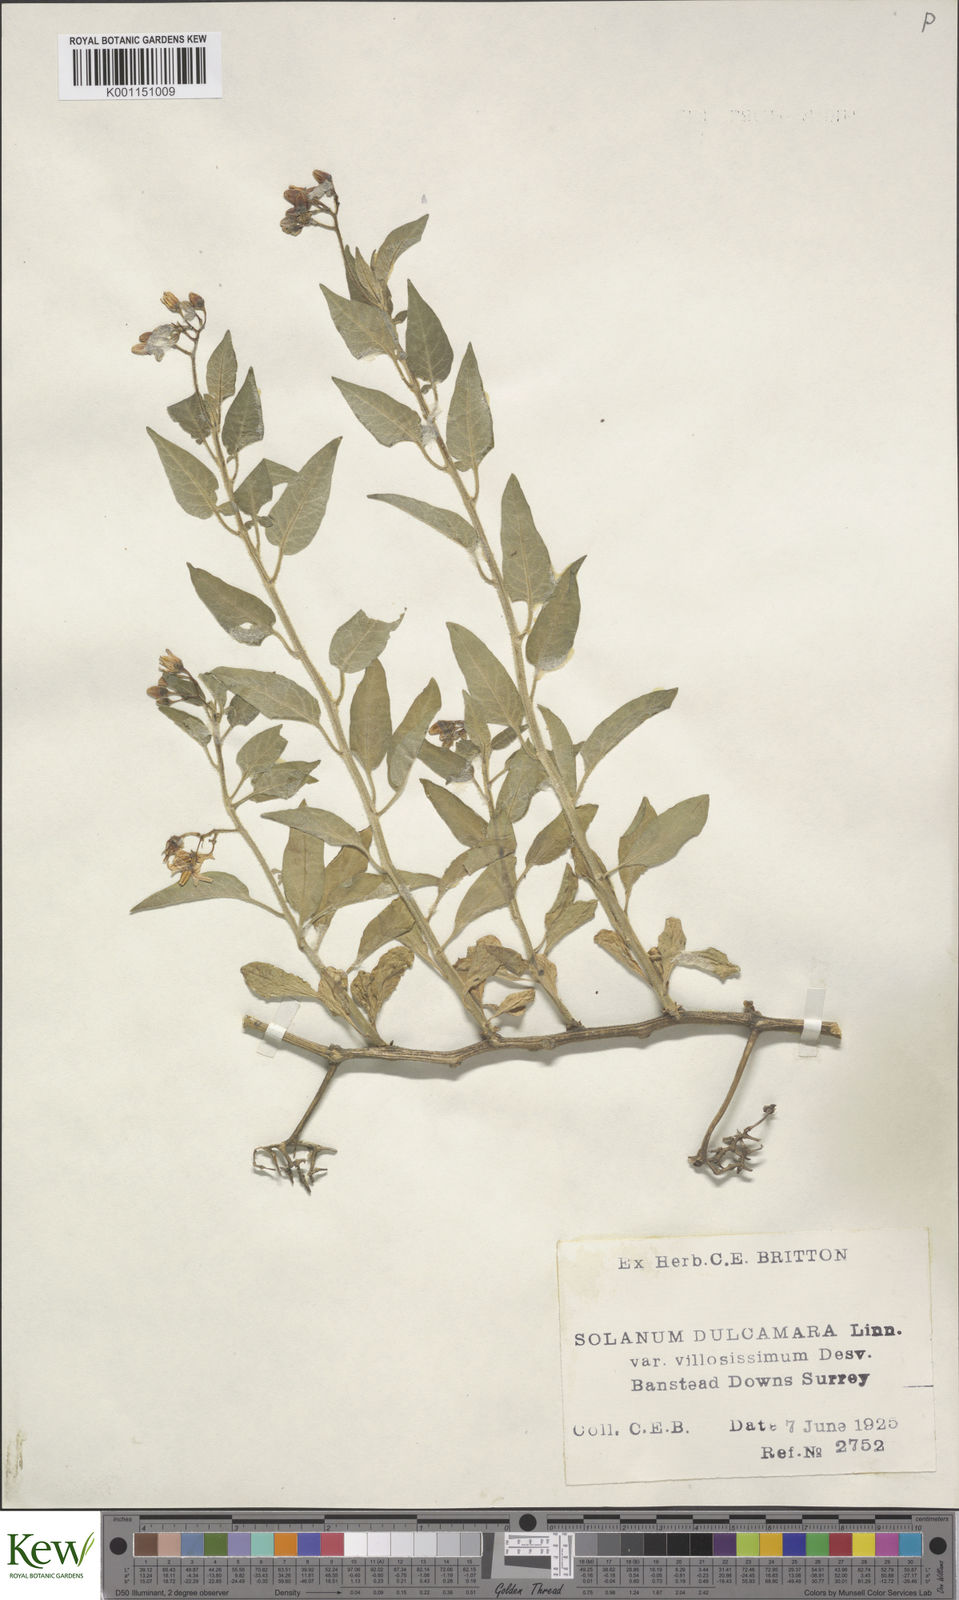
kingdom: Plantae
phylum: Tracheophyta
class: Magnoliopsida
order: Solanales
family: Solanaceae
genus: Solanum
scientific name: Solanum dulcamara
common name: Climbing nightshade
